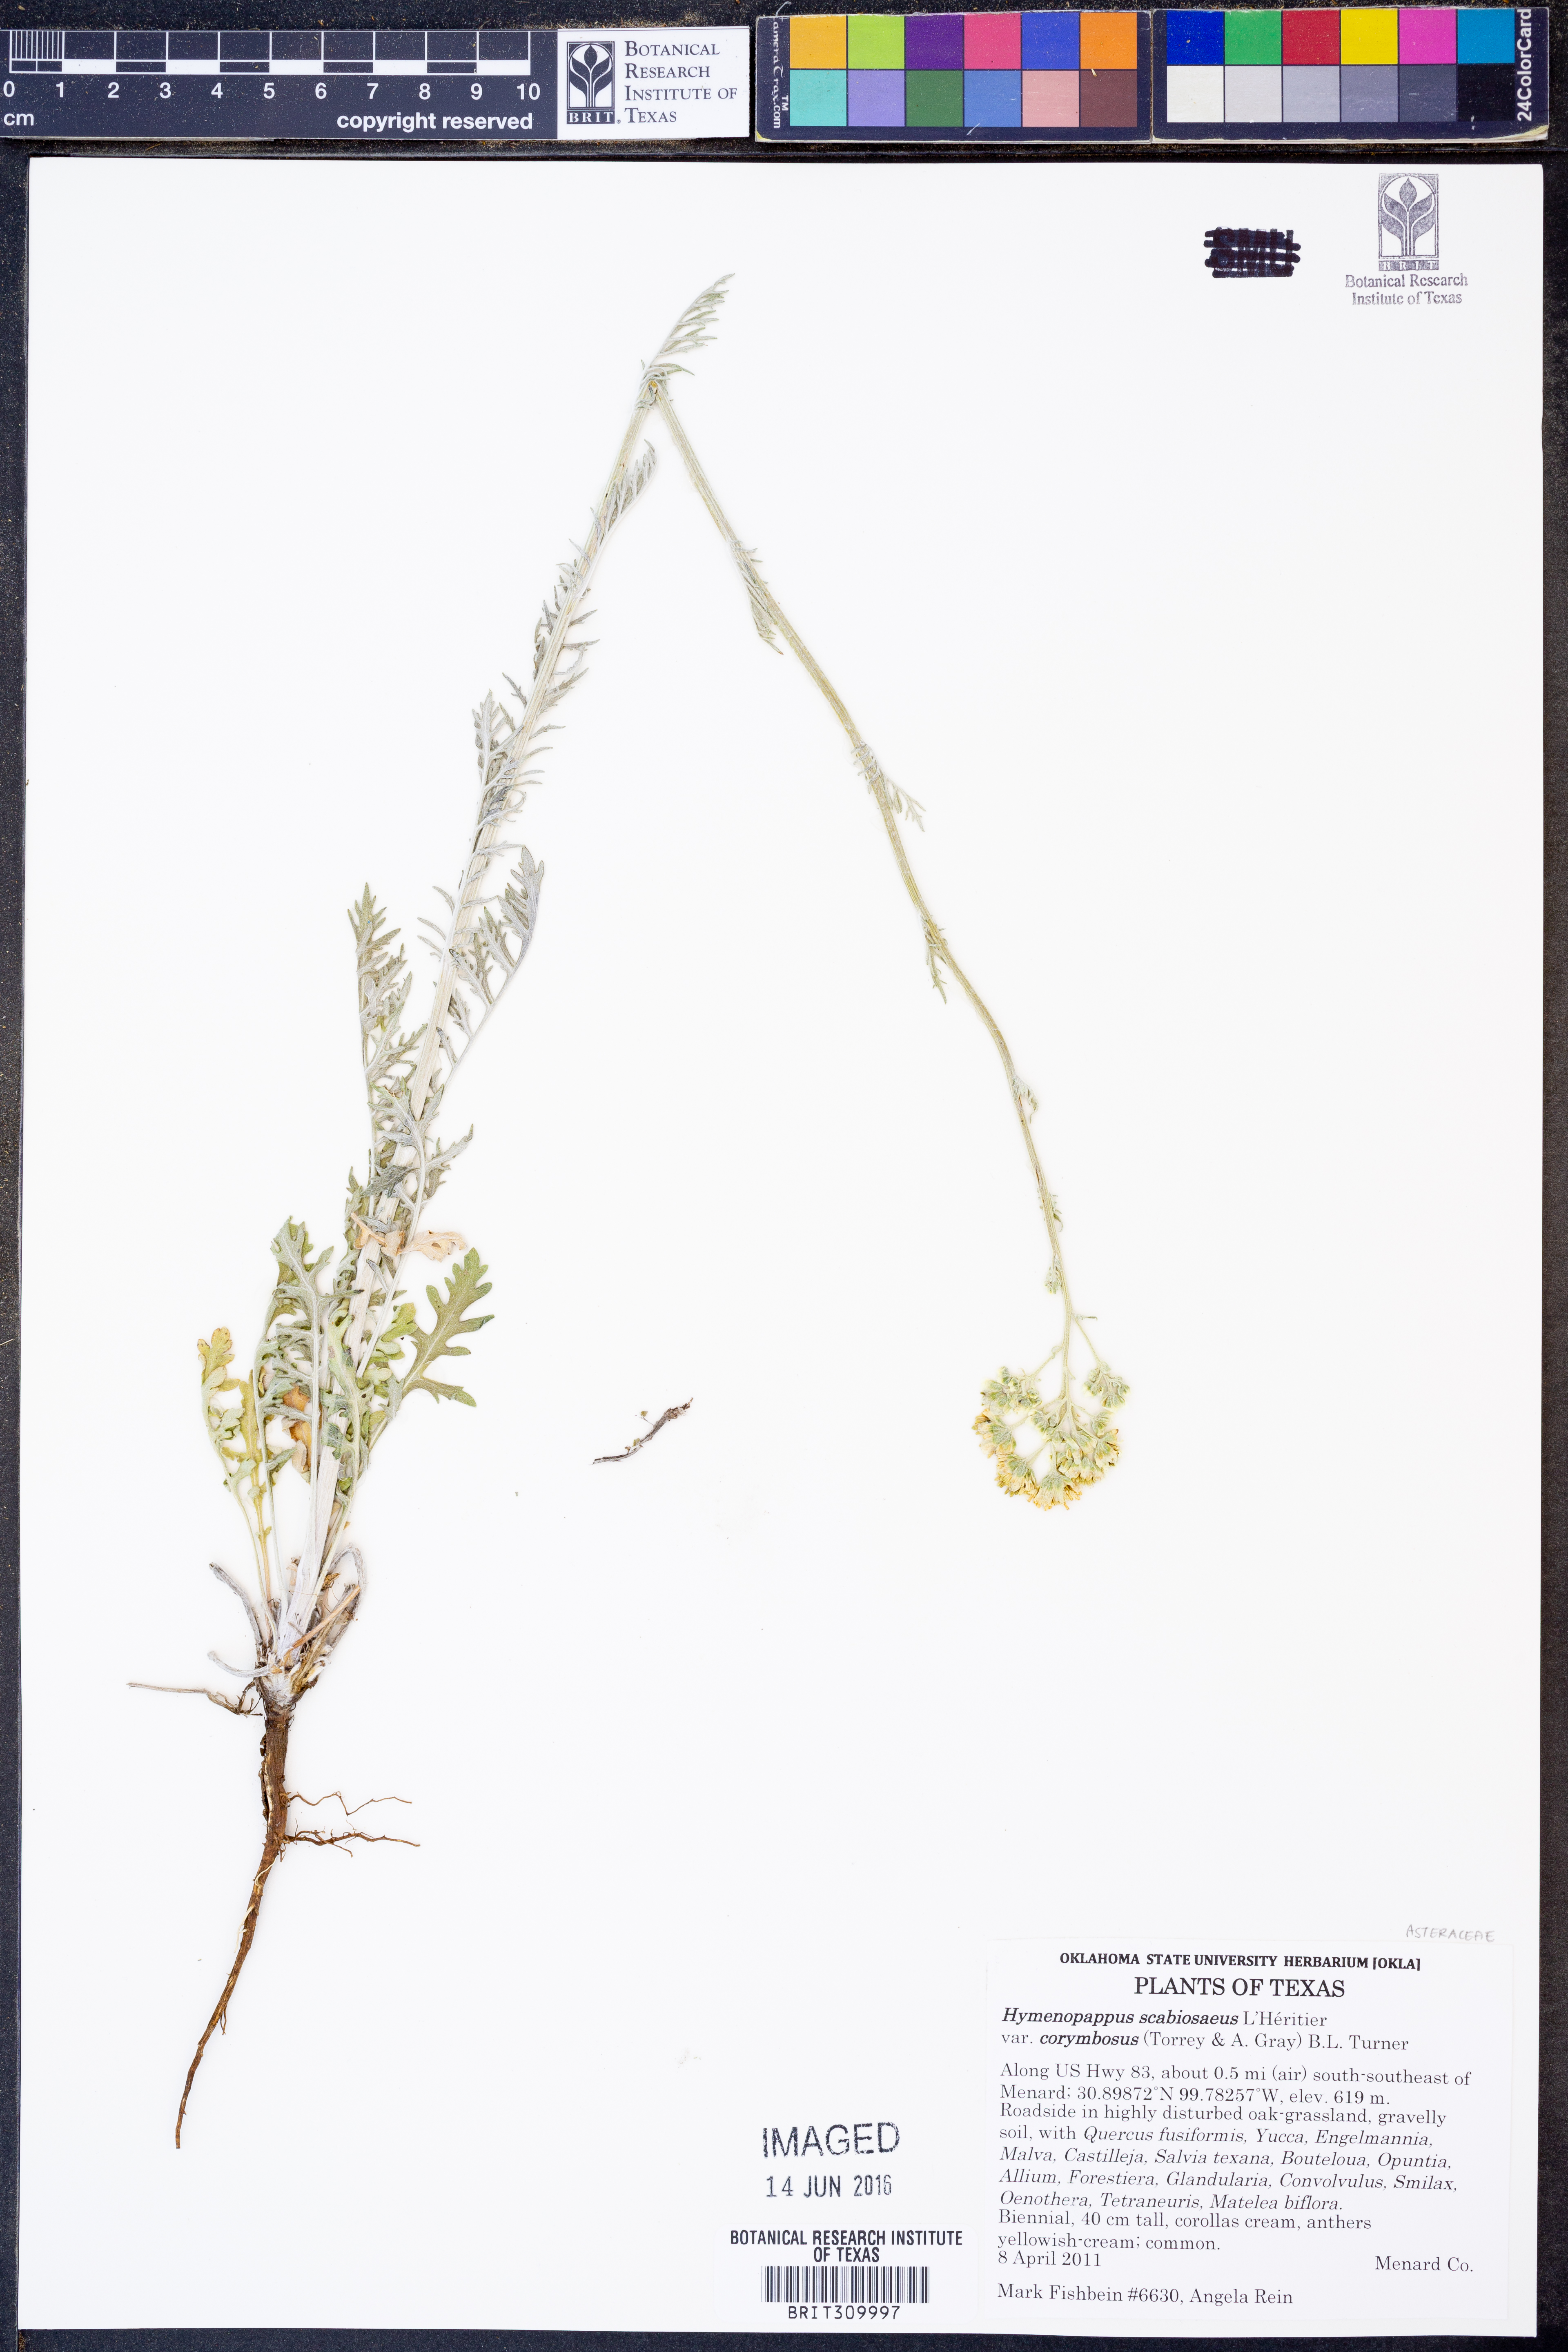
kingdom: Plantae
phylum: Tracheophyta
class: Magnoliopsida
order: Asterales
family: Asteraceae
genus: Hymenopappus
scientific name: Hymenopappus scabiosaeus
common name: Carolina woollywhite
